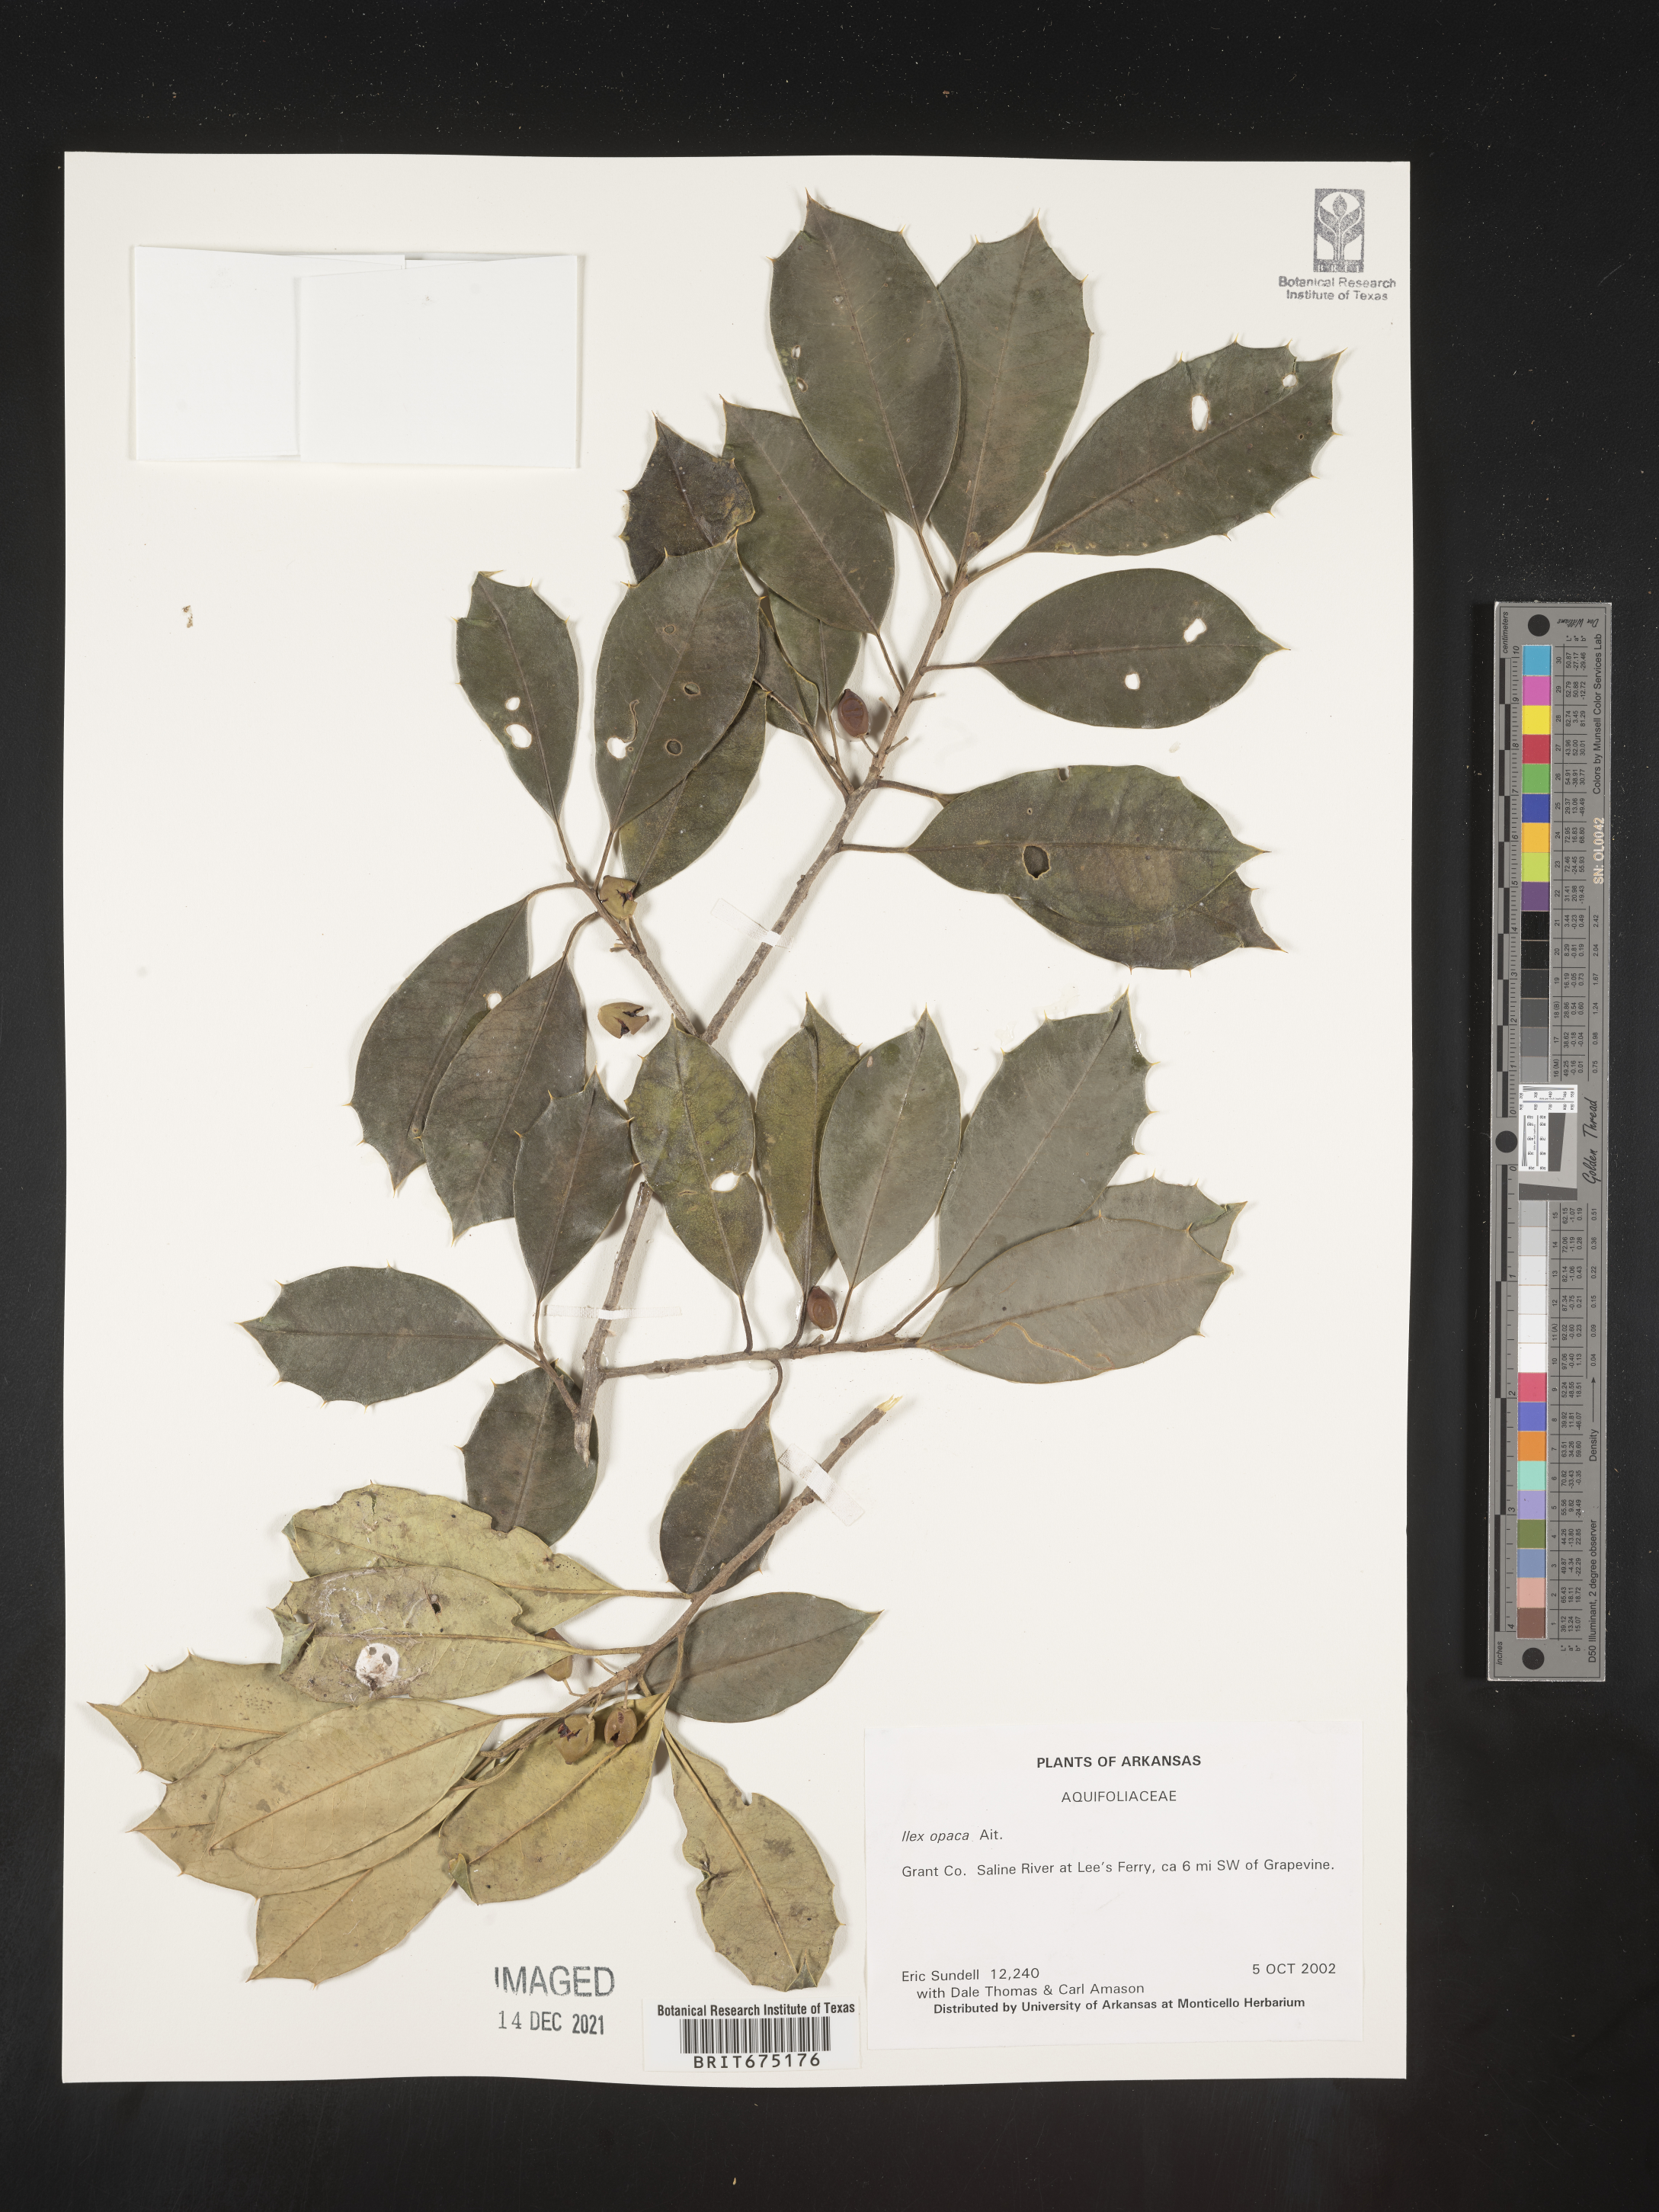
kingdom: Plantae
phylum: Tracheophyta
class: Magnoliopsida
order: Aquifoliales
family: Aquifoliaceae
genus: Ilex
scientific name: Ilex opaca
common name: American holly
